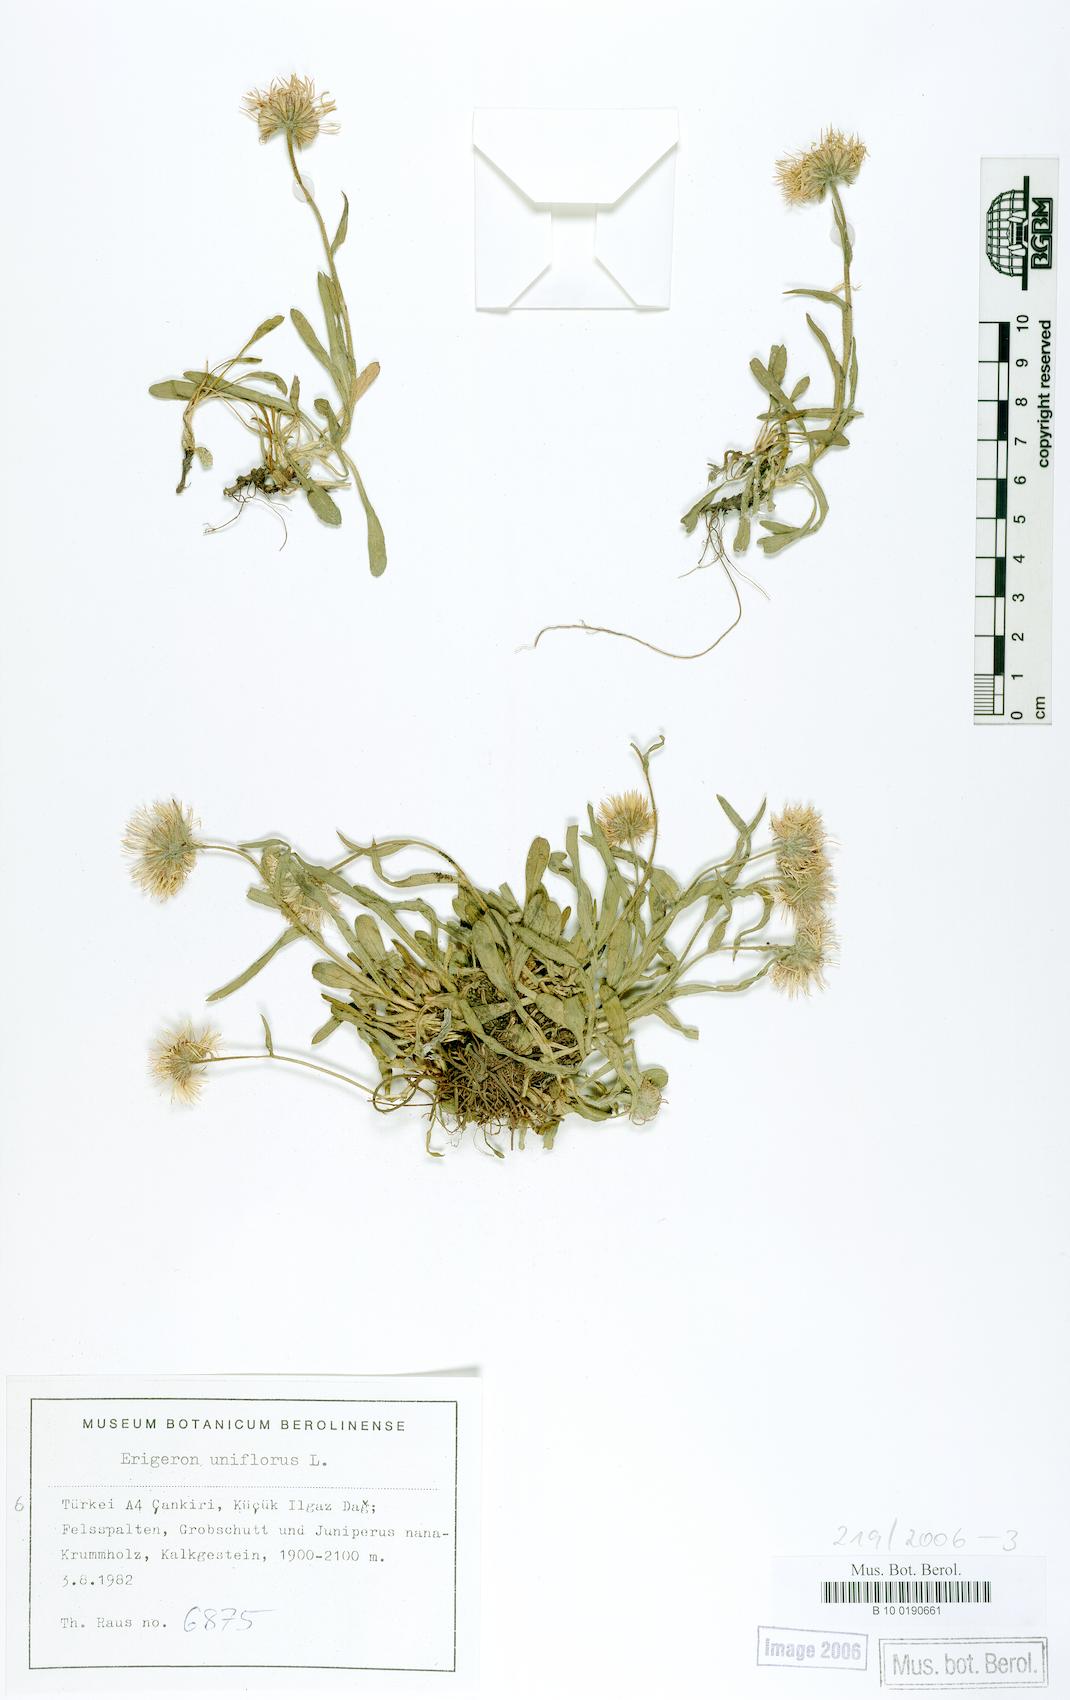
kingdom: Plantae
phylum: Tracheophyta
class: Magnoliopsida
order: Asterales
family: Asteraceae
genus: Erigeron
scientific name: Erigeron uniflorus
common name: Northern daisy
